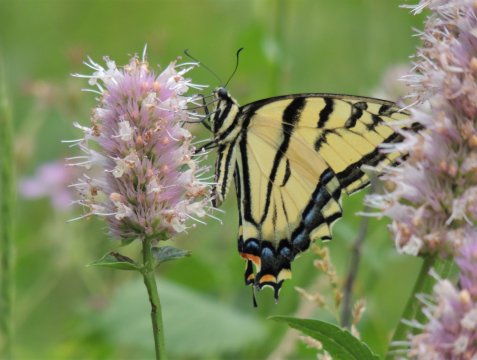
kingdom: Animalia
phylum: Arthropoda
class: Insecta
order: Lepidoptera
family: Papilionidae
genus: Papilio
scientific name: Papilio multicaudata
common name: Two-tailed Swallowtail
